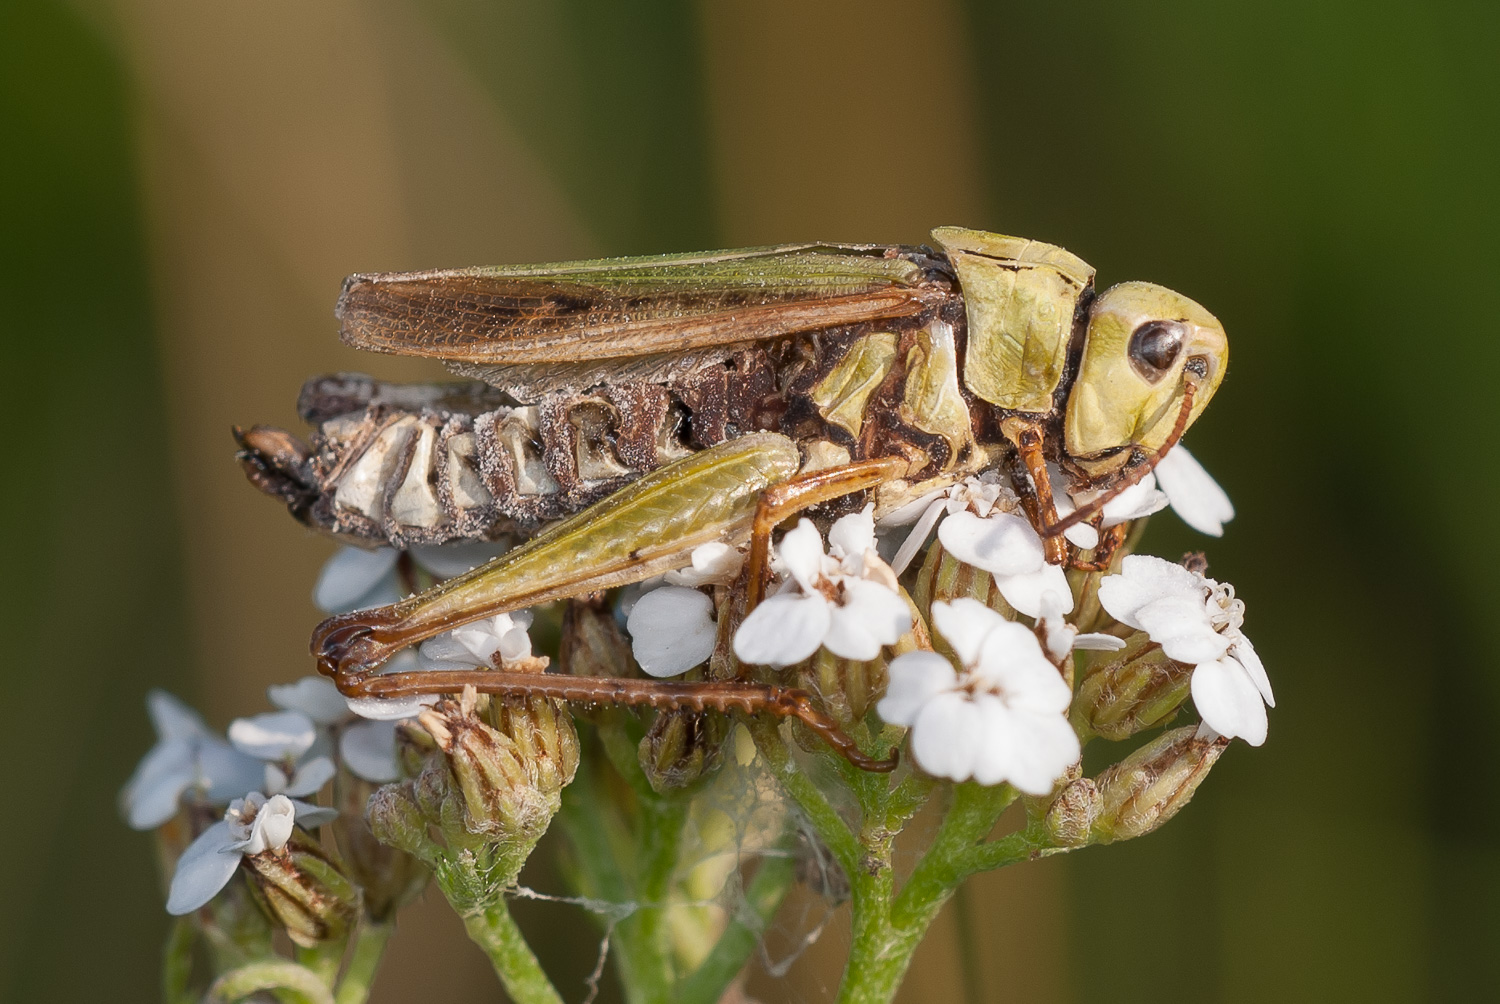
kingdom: Fungi
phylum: Entomophthoromycota
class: Entomophthoromycetes
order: Entomophthorales
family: Entomophthoraceae
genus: Entomophaga
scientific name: Entomophaga grylli
